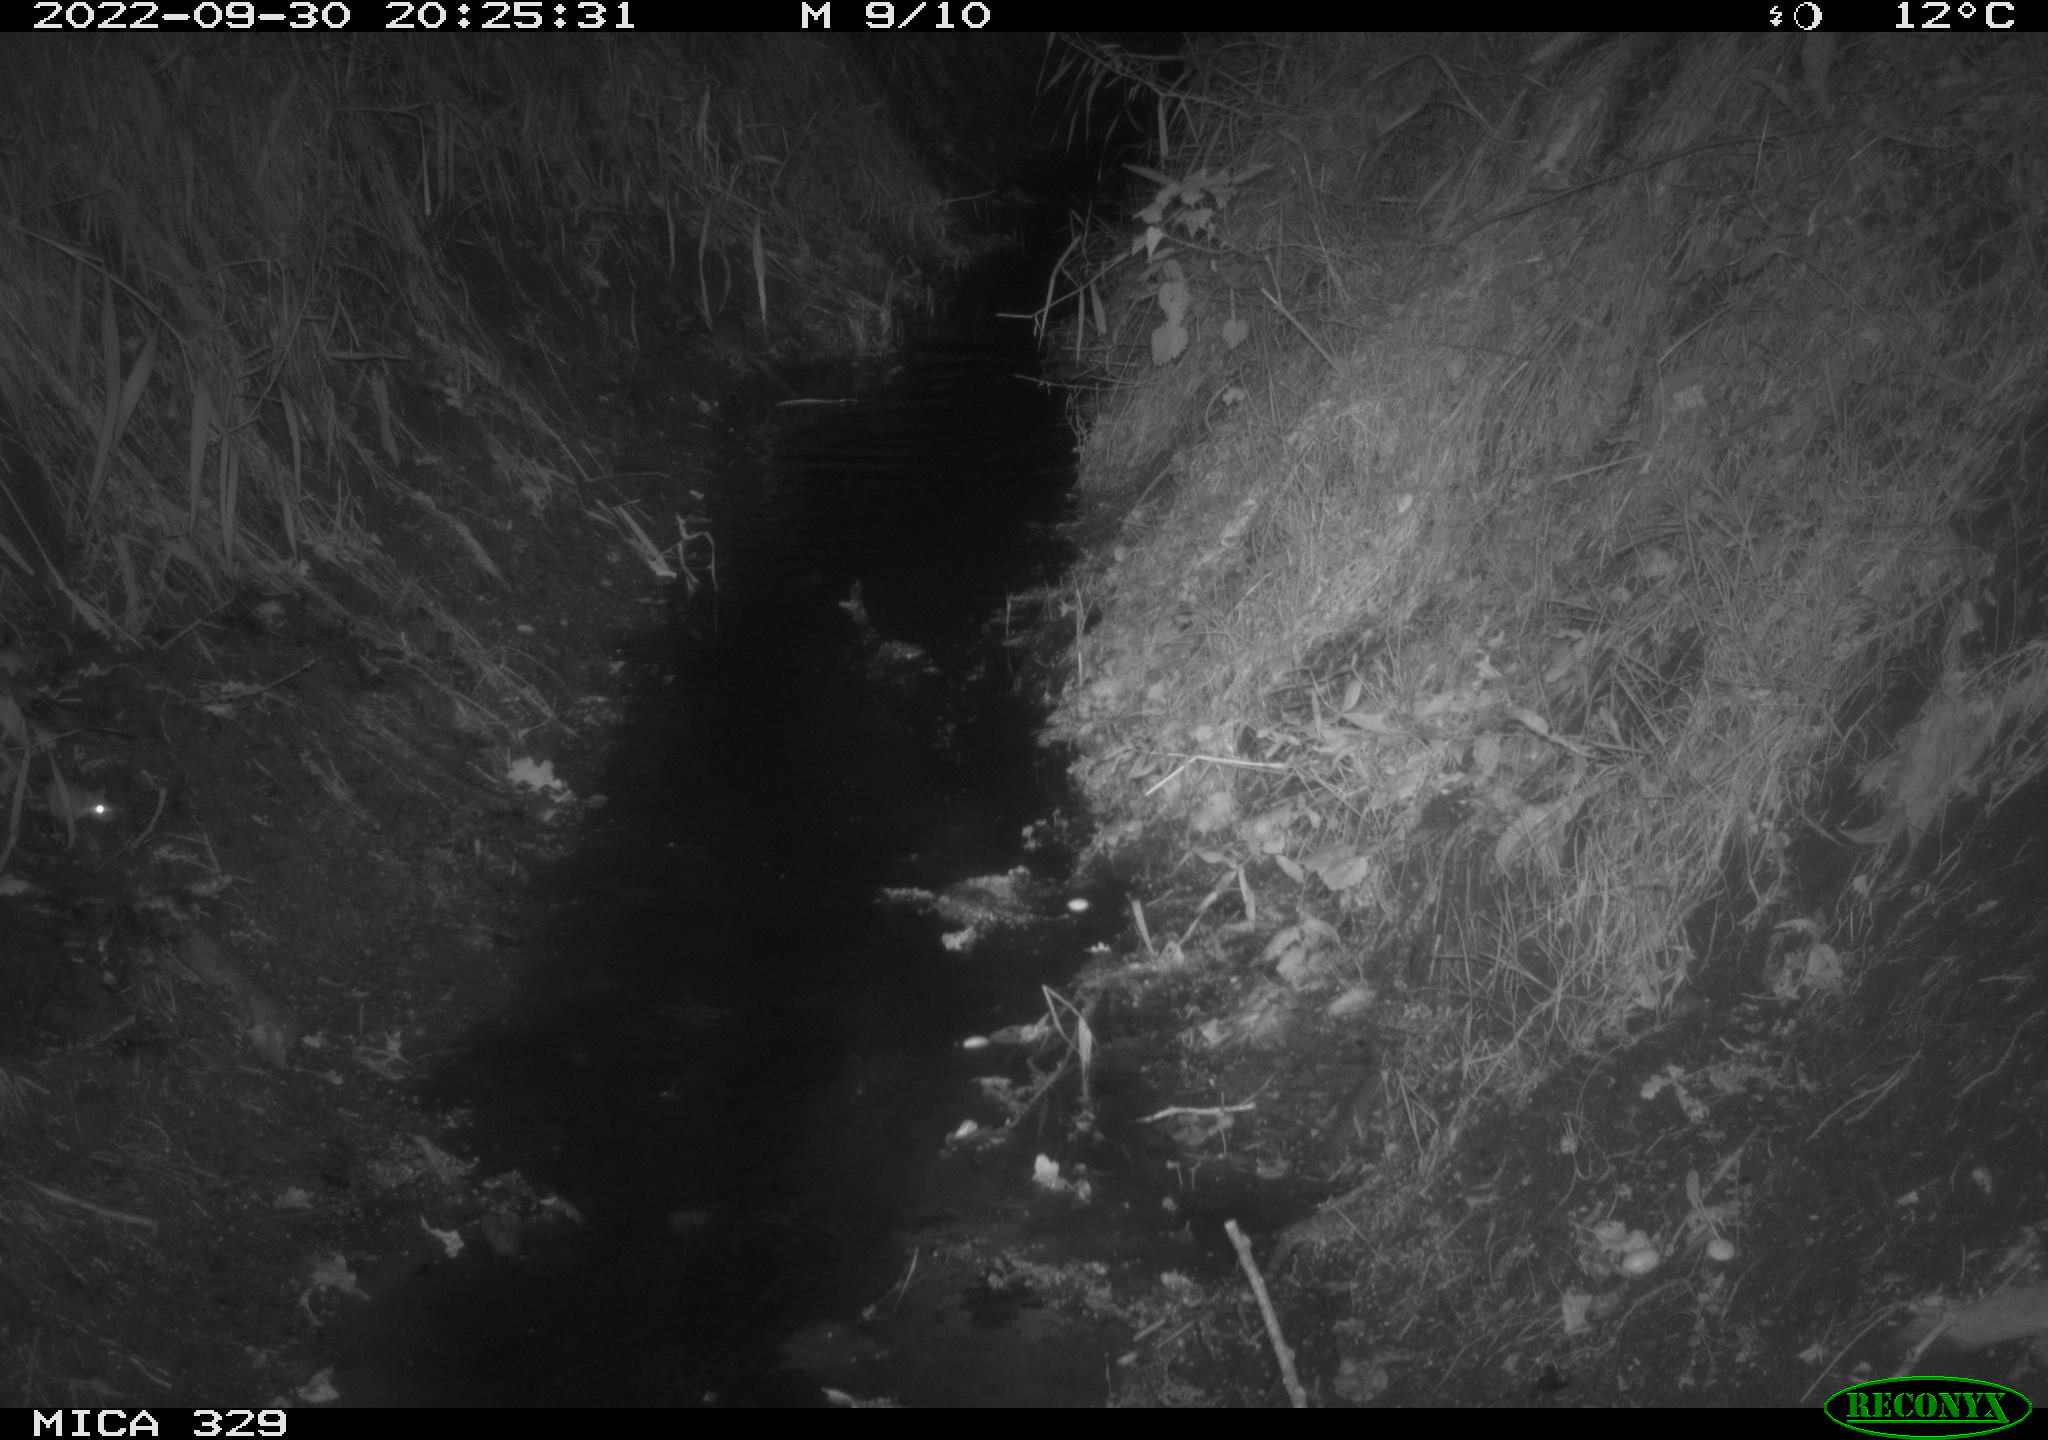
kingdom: Animalia
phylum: Chordata
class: Mammalia
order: Rodentia
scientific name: Rodentia
